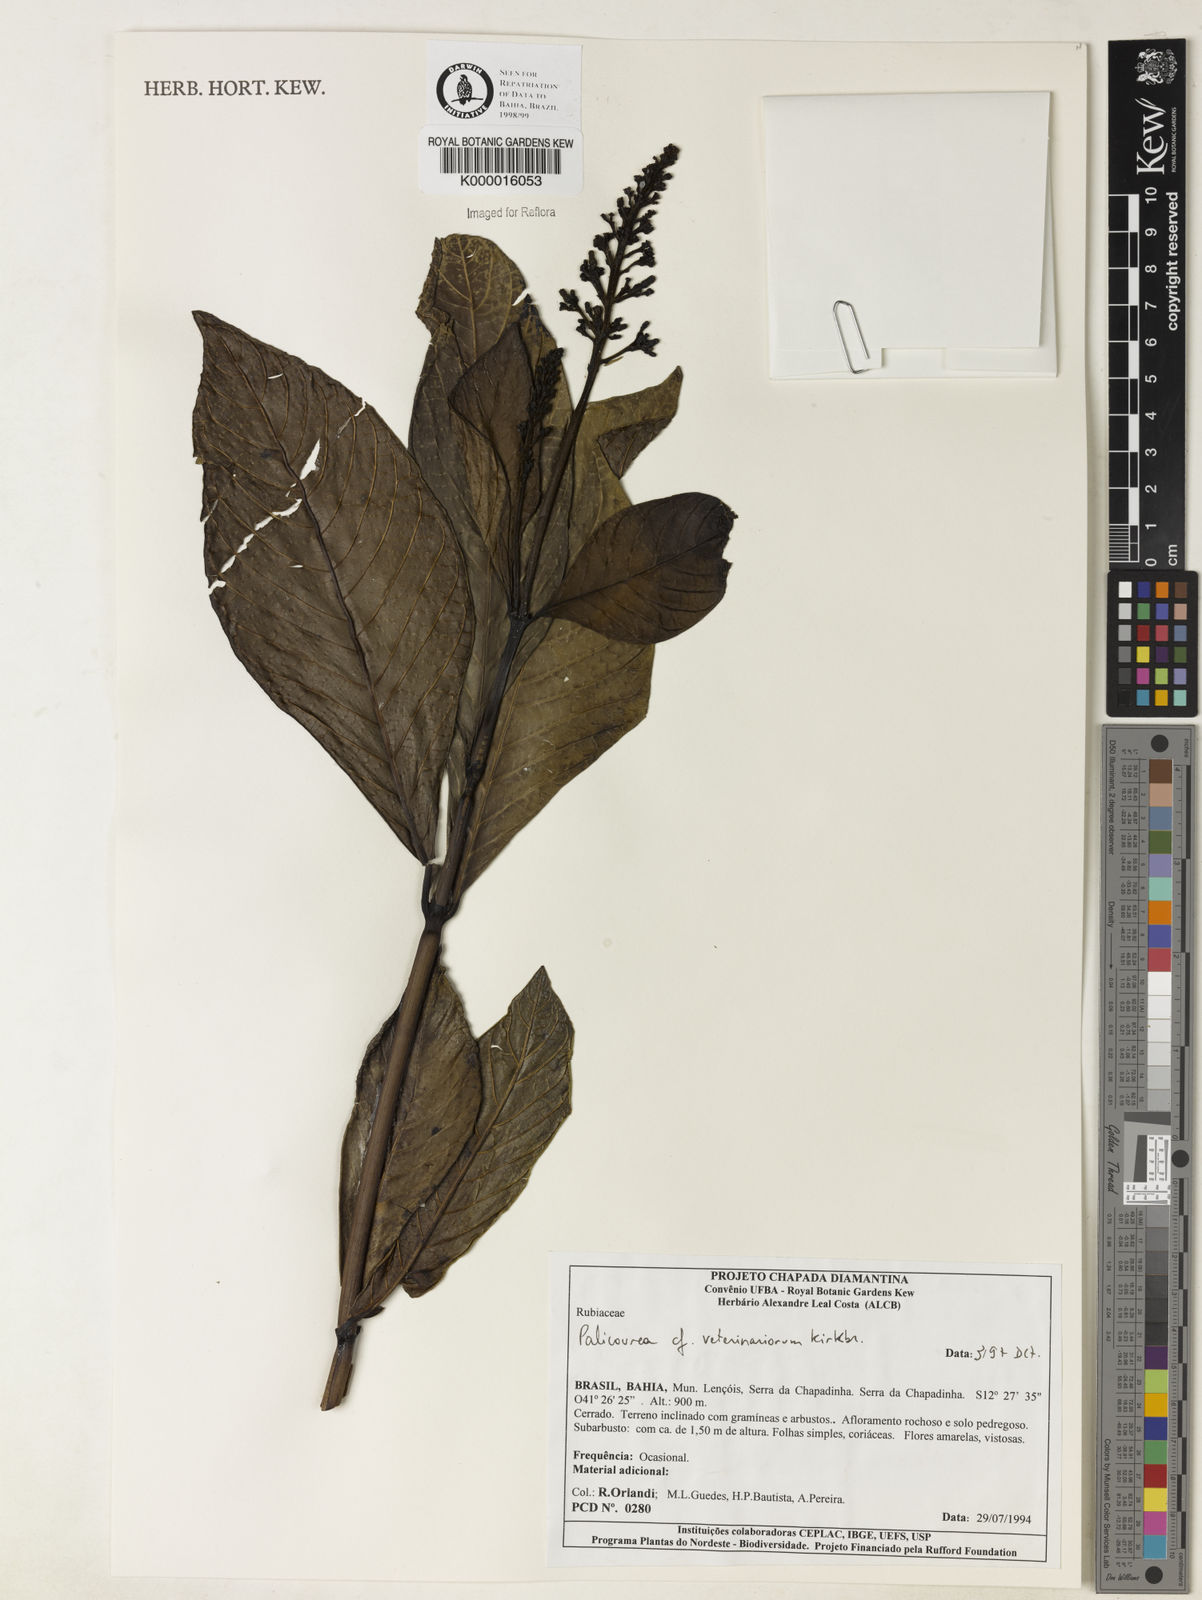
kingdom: Plantae
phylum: Tracheophyta
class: Magnoliopsida
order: Gentianales
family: Rubiaceae
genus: Palicourea
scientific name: Palicourea veterinariorum
